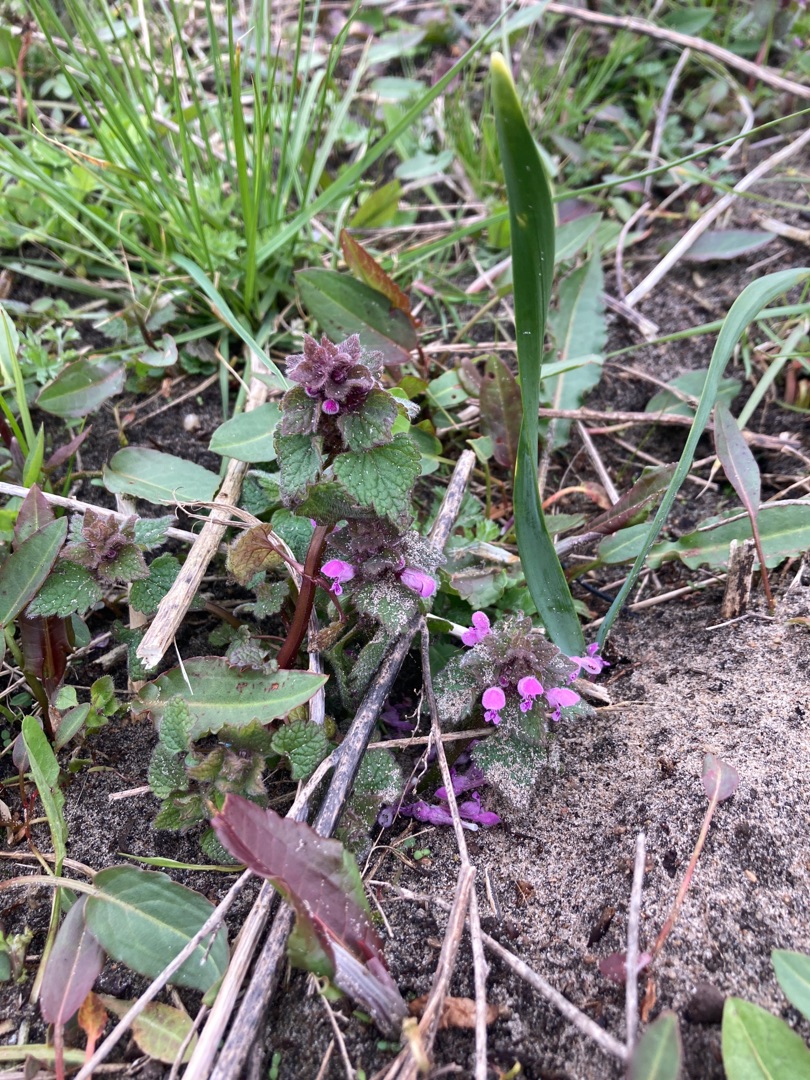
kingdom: Plantae
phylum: Tracheophyta
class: Magnoliopsida
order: Lamiales
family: Lamiaceae
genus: Lamium
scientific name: Lamium purpureum
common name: Rød tvetand
